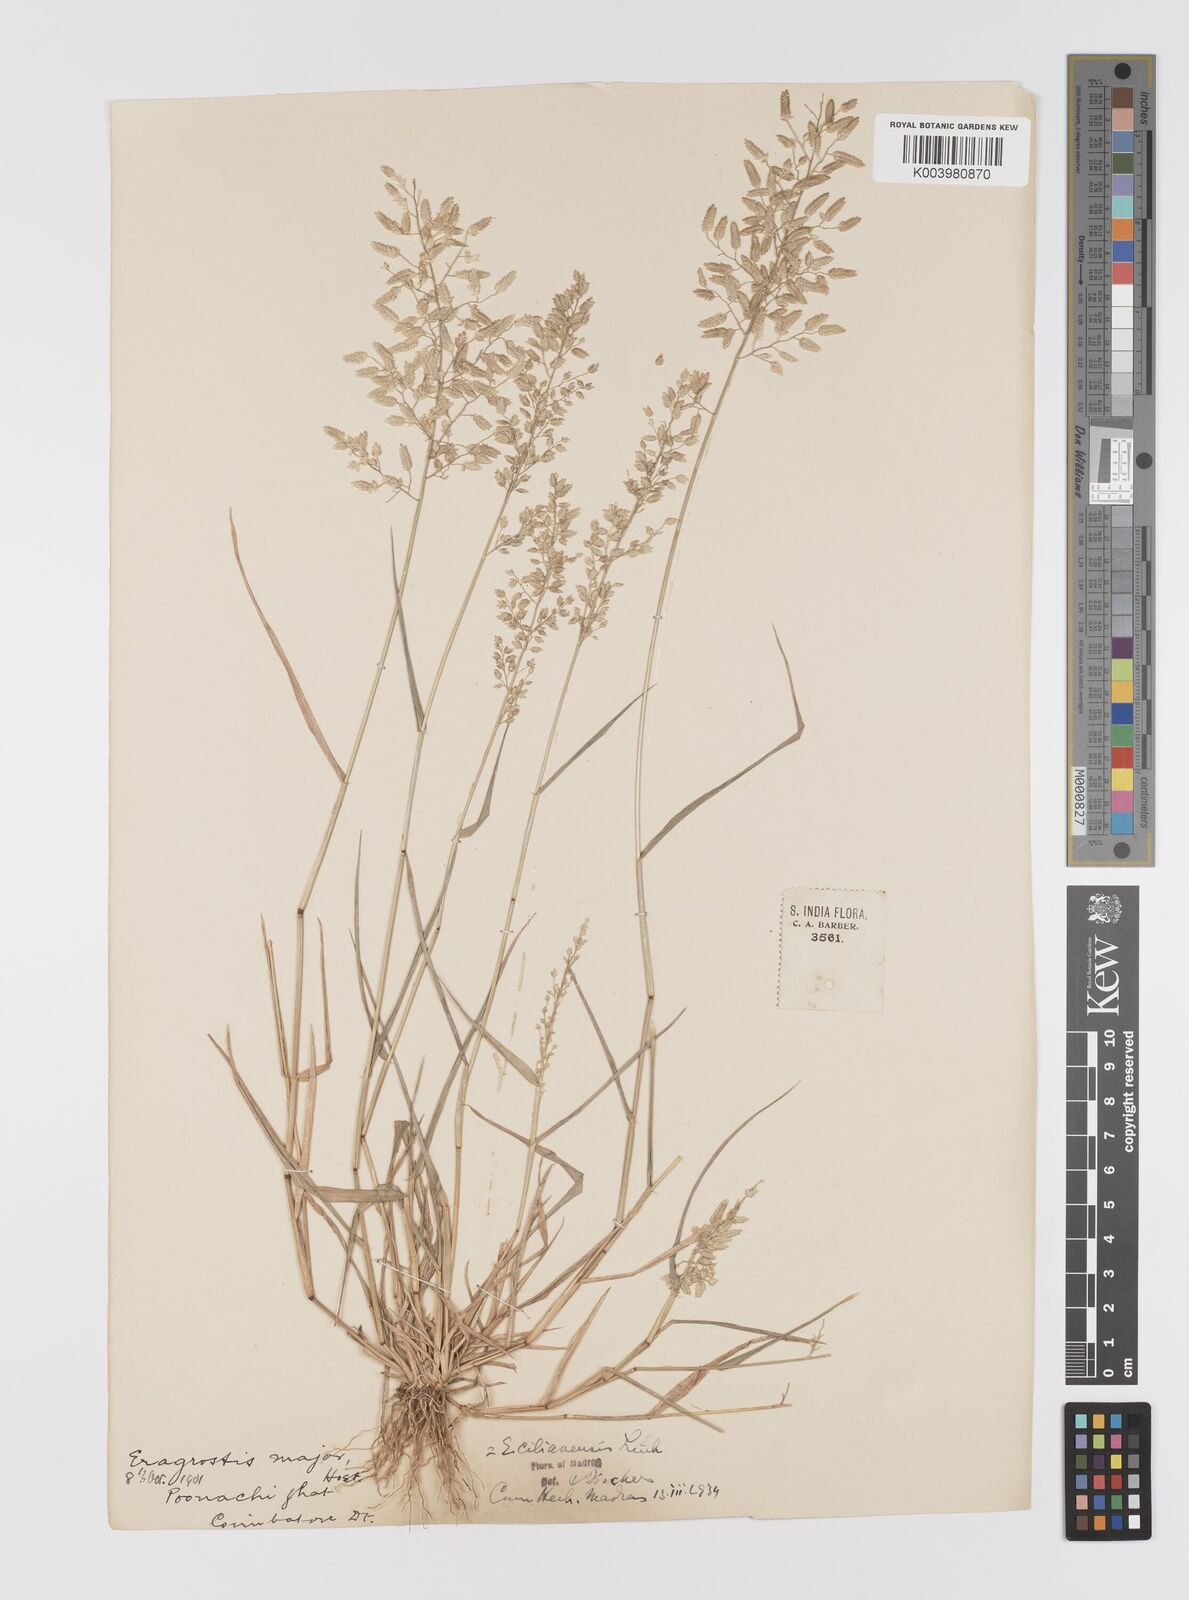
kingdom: Plantae
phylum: Tracheophyta
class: Liliopsida
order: Poales
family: Poaceae
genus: Eragrostis
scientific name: Eragrostis cilianensis
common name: Stinkgrass
